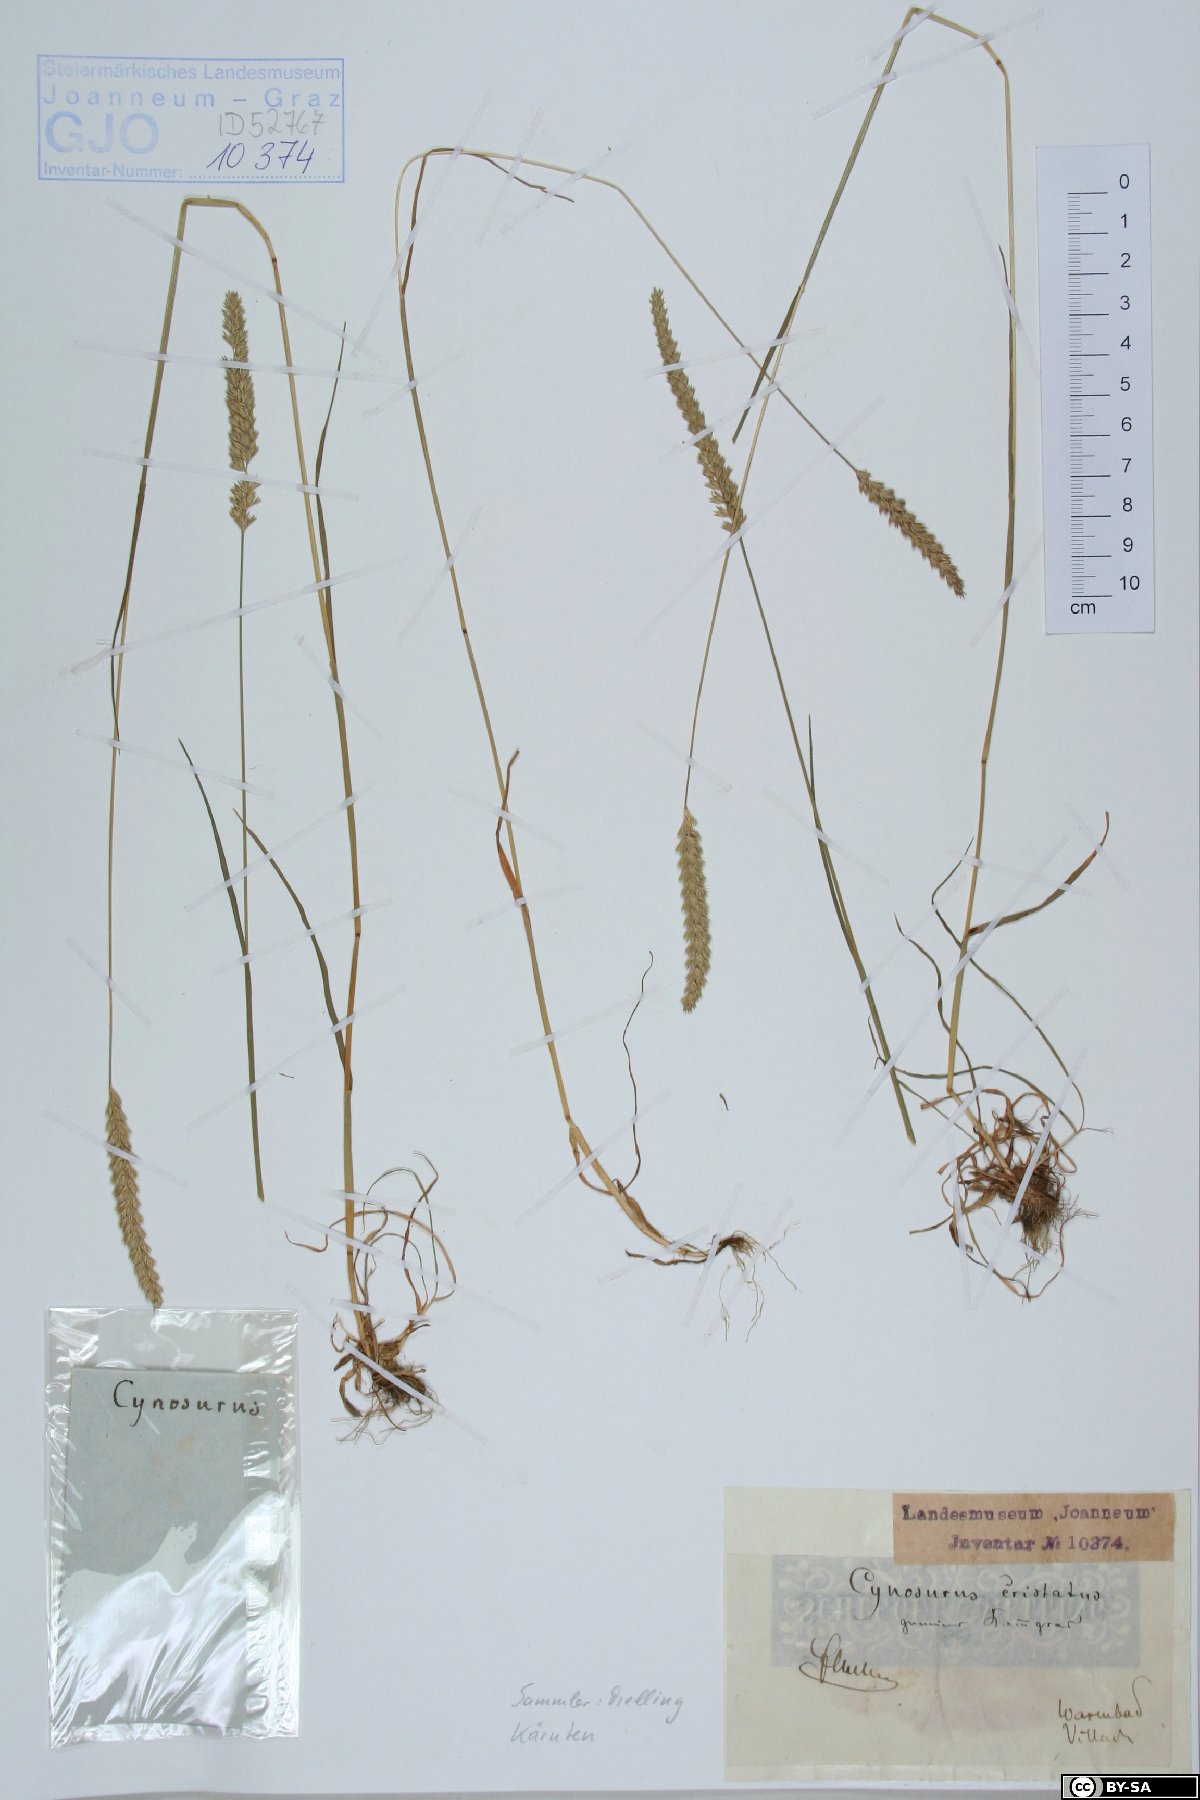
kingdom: Plantae
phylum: Tracheophyta
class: Liliopsida
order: Poales
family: Poaceae
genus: Cynosurus
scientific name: Cynosurus cristatus
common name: Crested dog's-tail
